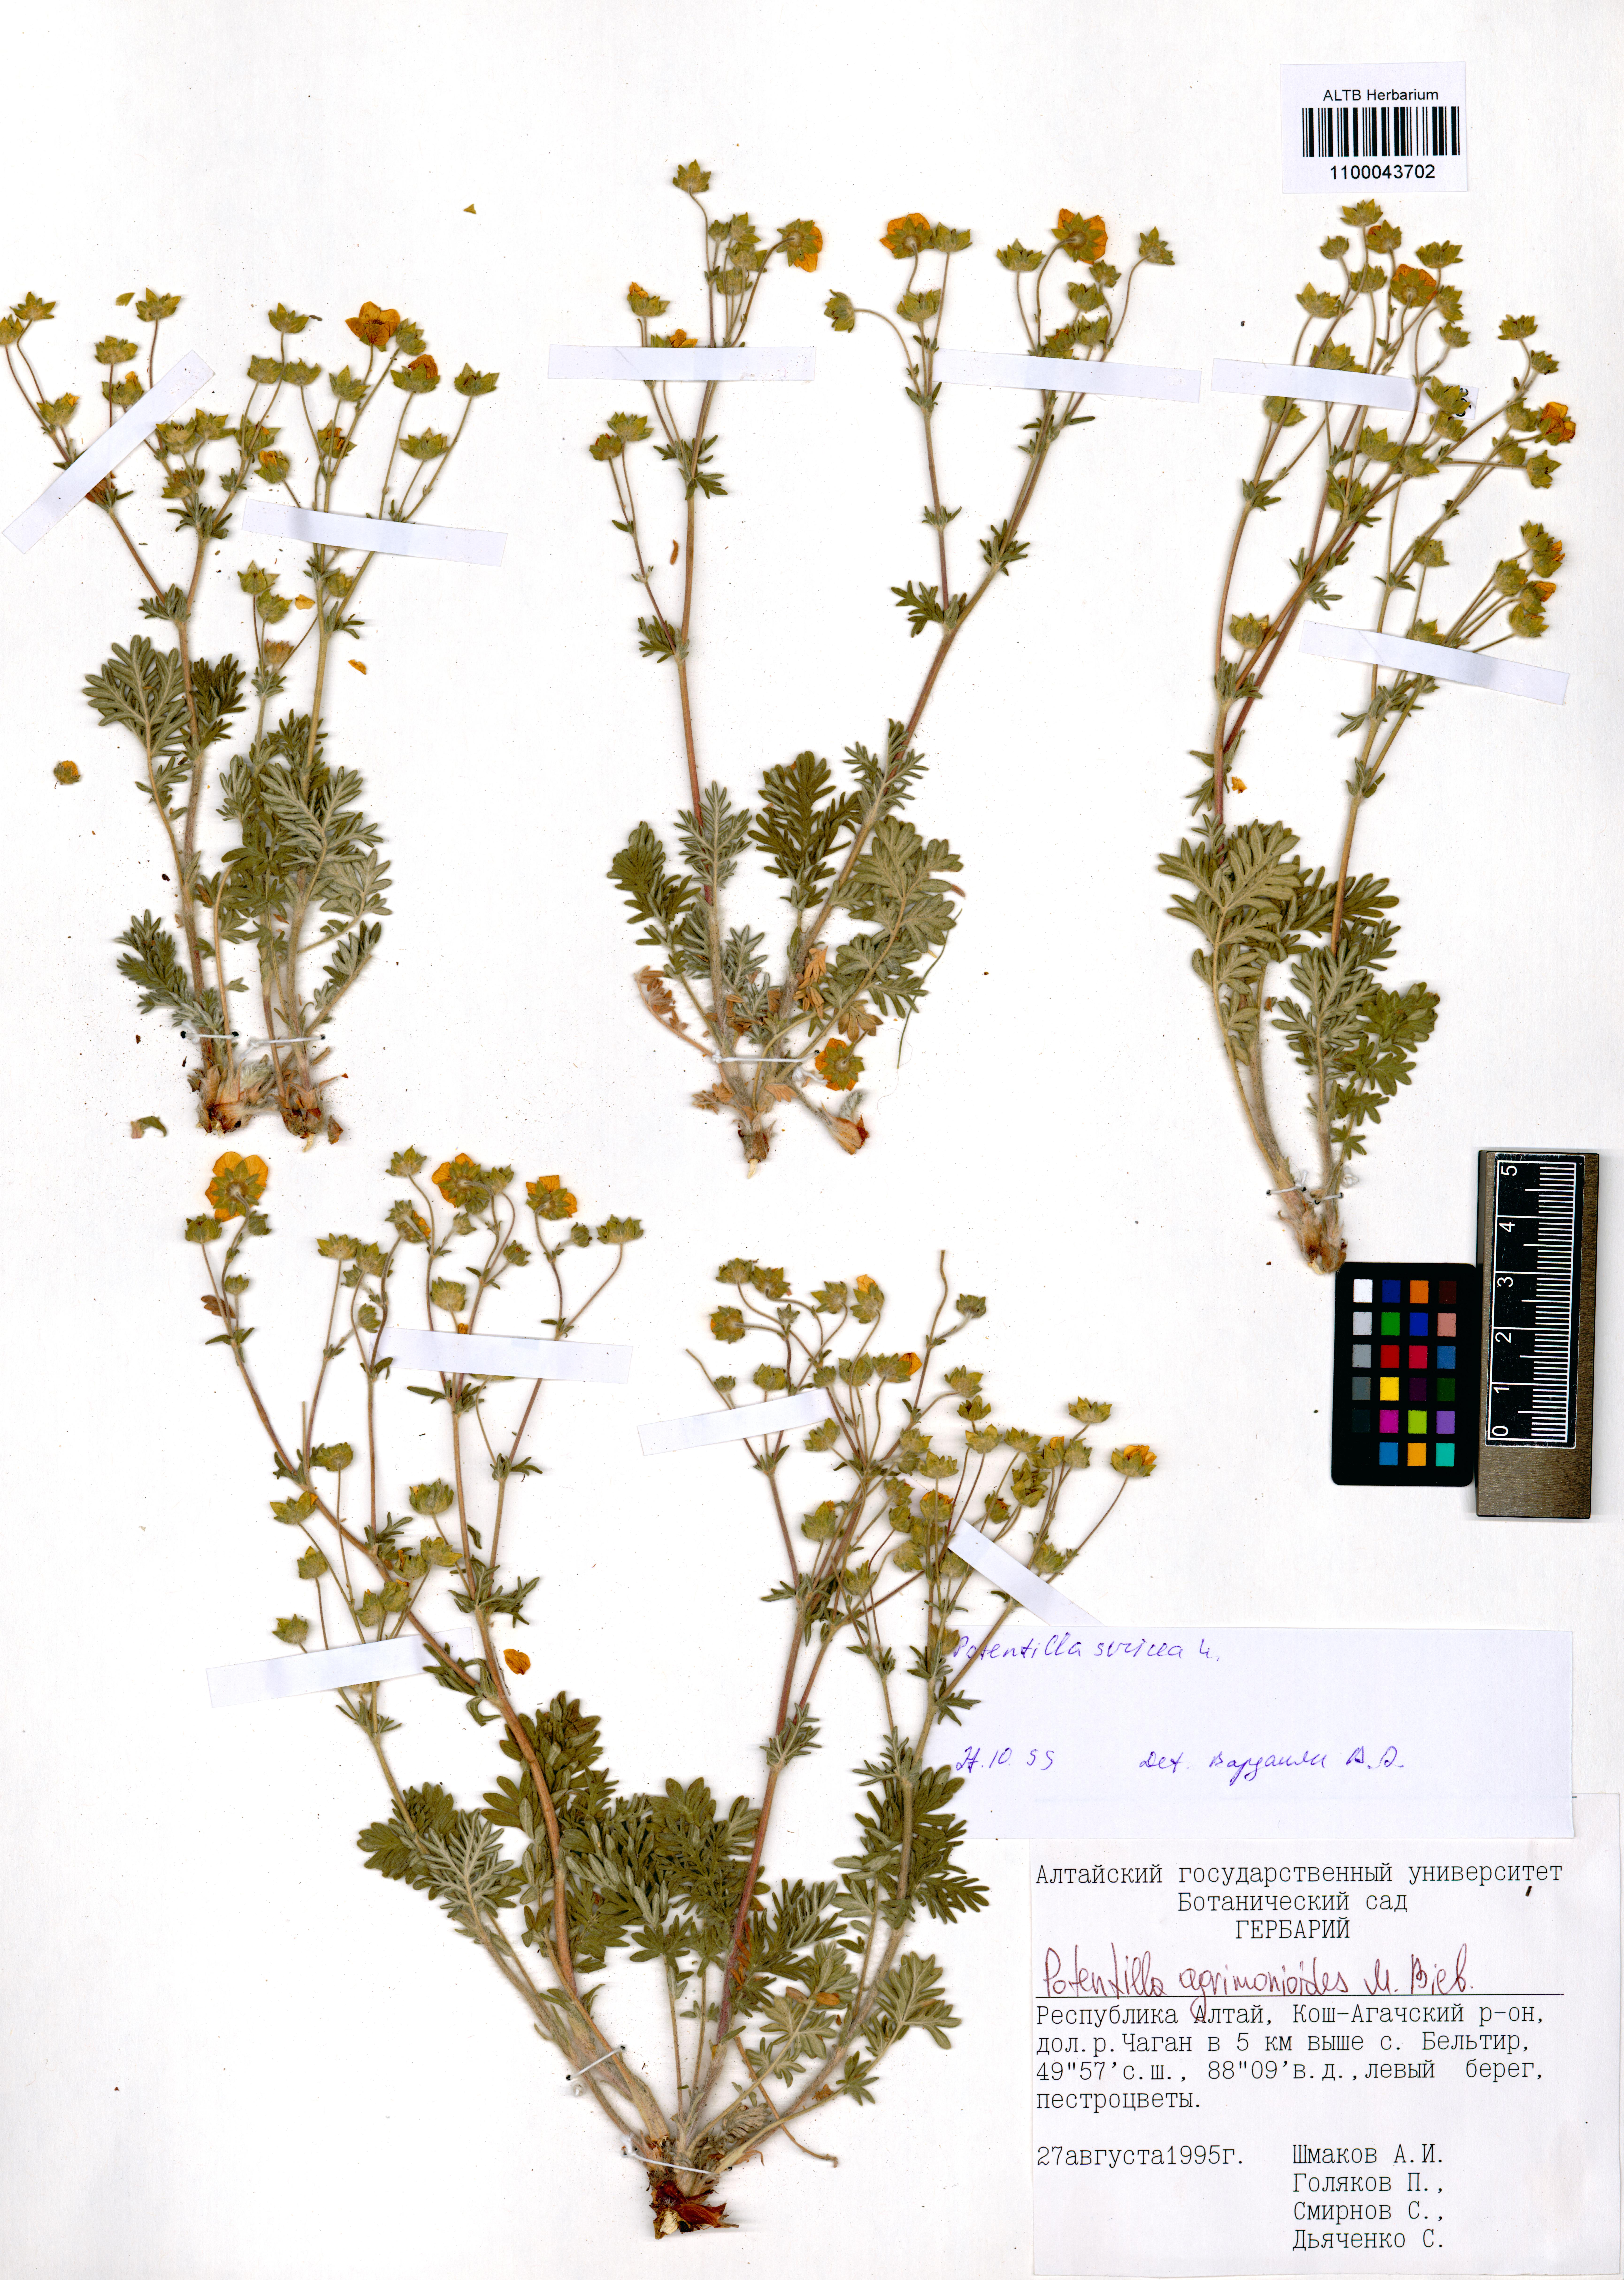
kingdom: Plantae
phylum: Tracheophyta
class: Magnoliopsida
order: Rosales
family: Rosaceae
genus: Potentilla
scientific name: Potentilla agrimonioides
